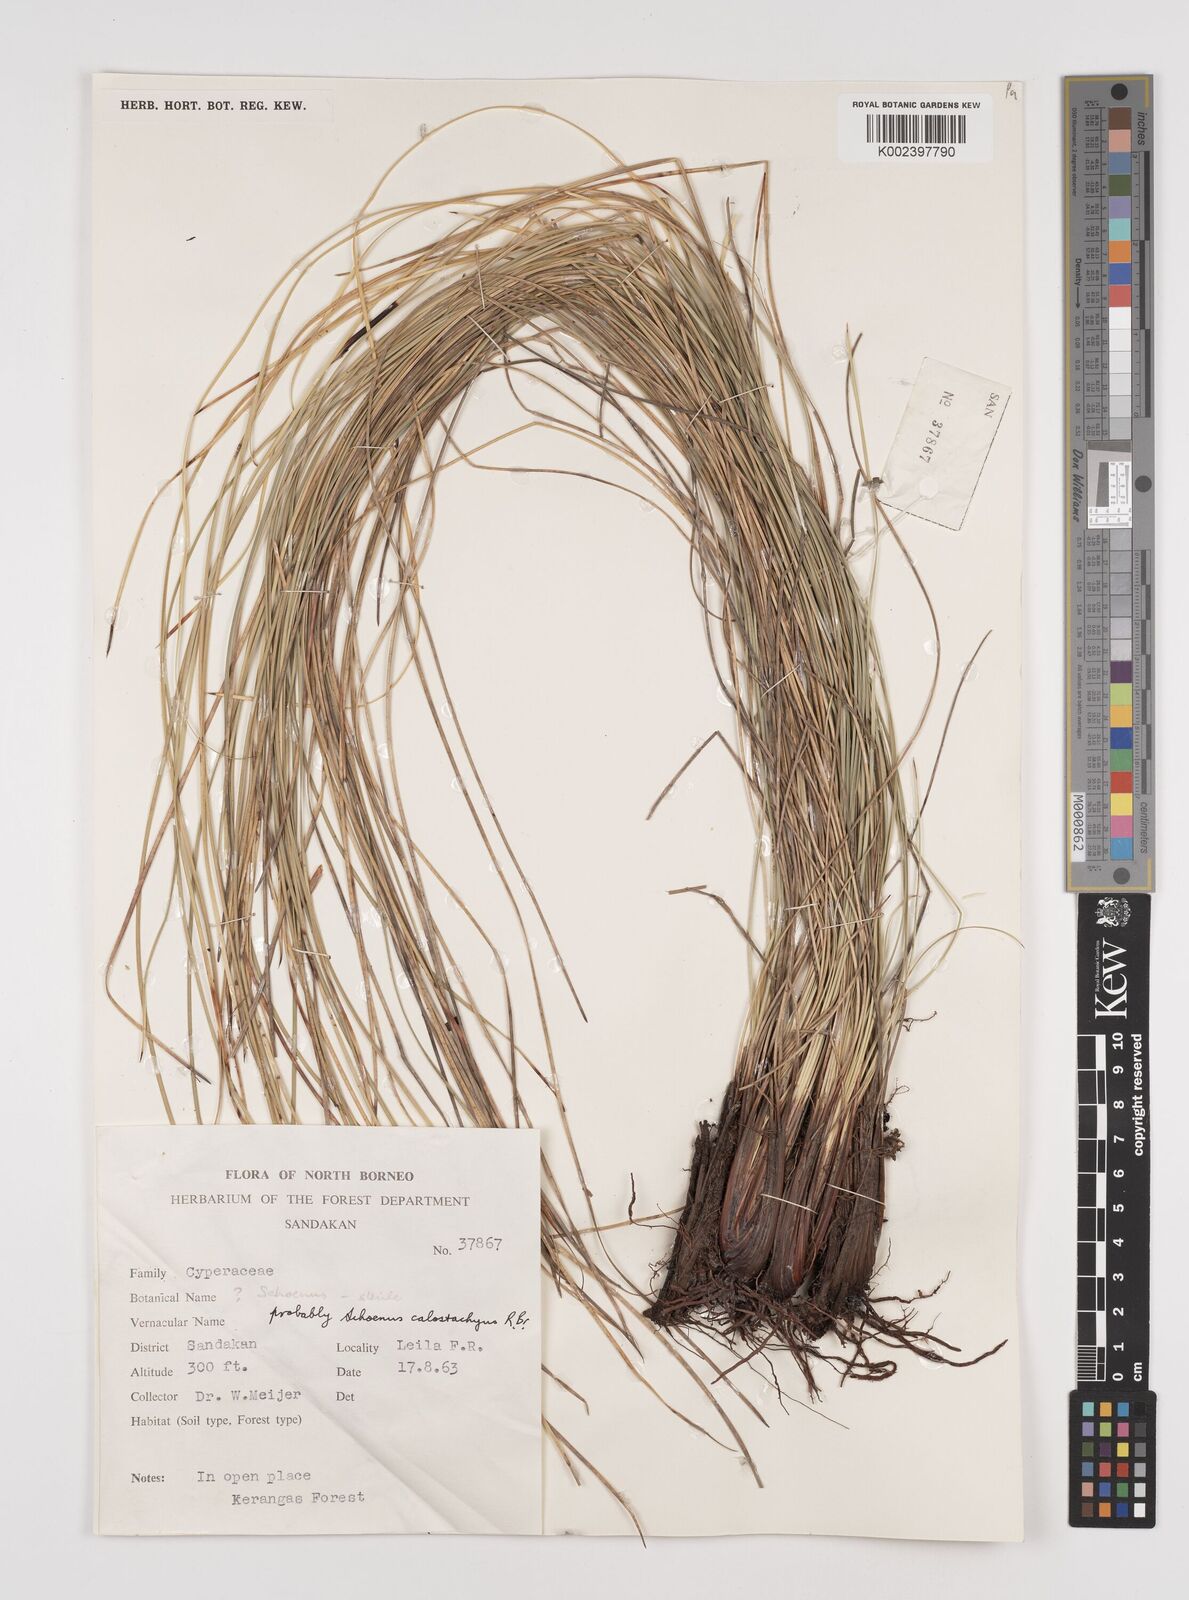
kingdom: Plantae
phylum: Tracheophyta
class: Liliopsida
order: Poales
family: Cyperaceae
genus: Schoenus
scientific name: Schoenus
